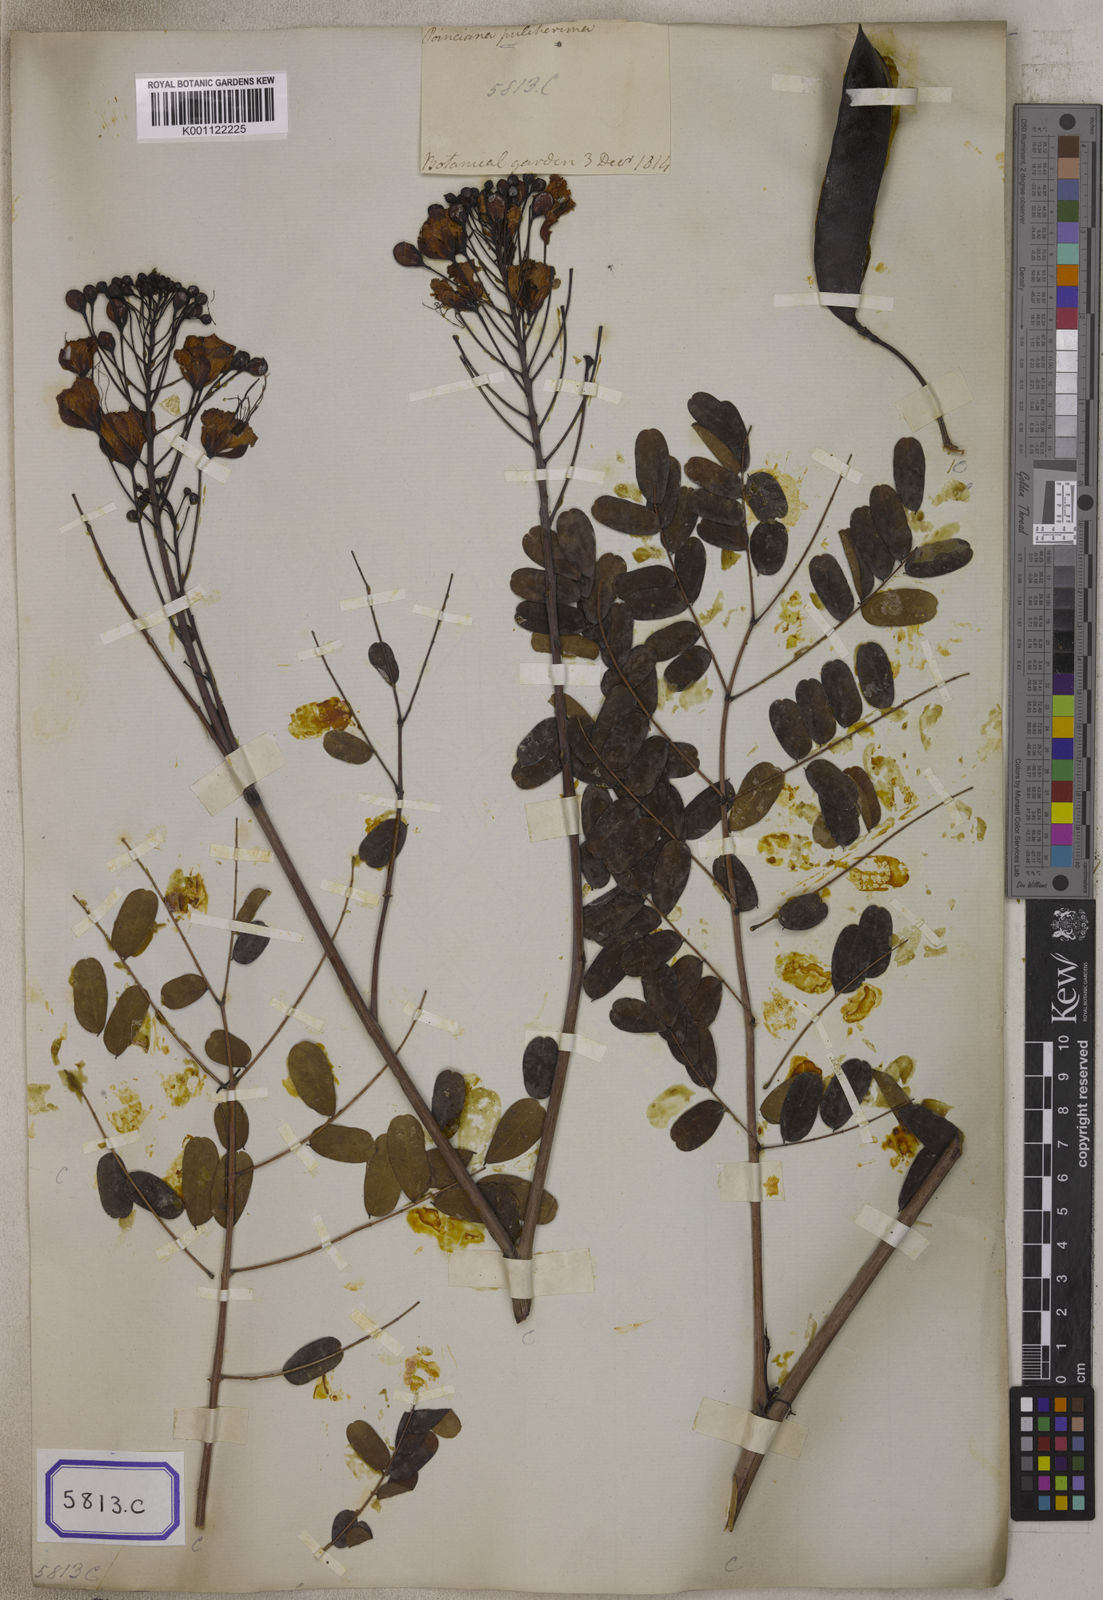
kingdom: Plantae
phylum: Tracheophyta
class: Magnoliopsida
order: Fabales
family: Fabaceae
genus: Caesalpinia
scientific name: Caesalpinia pulcherrima
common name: Pride-of-barbados
